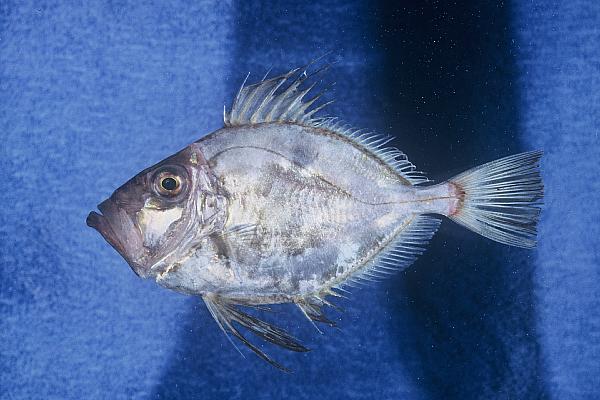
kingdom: Animalia
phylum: Chordata
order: Zeiformes
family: Zeidae
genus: Zeus
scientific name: Zeus capensis
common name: Cape dory
